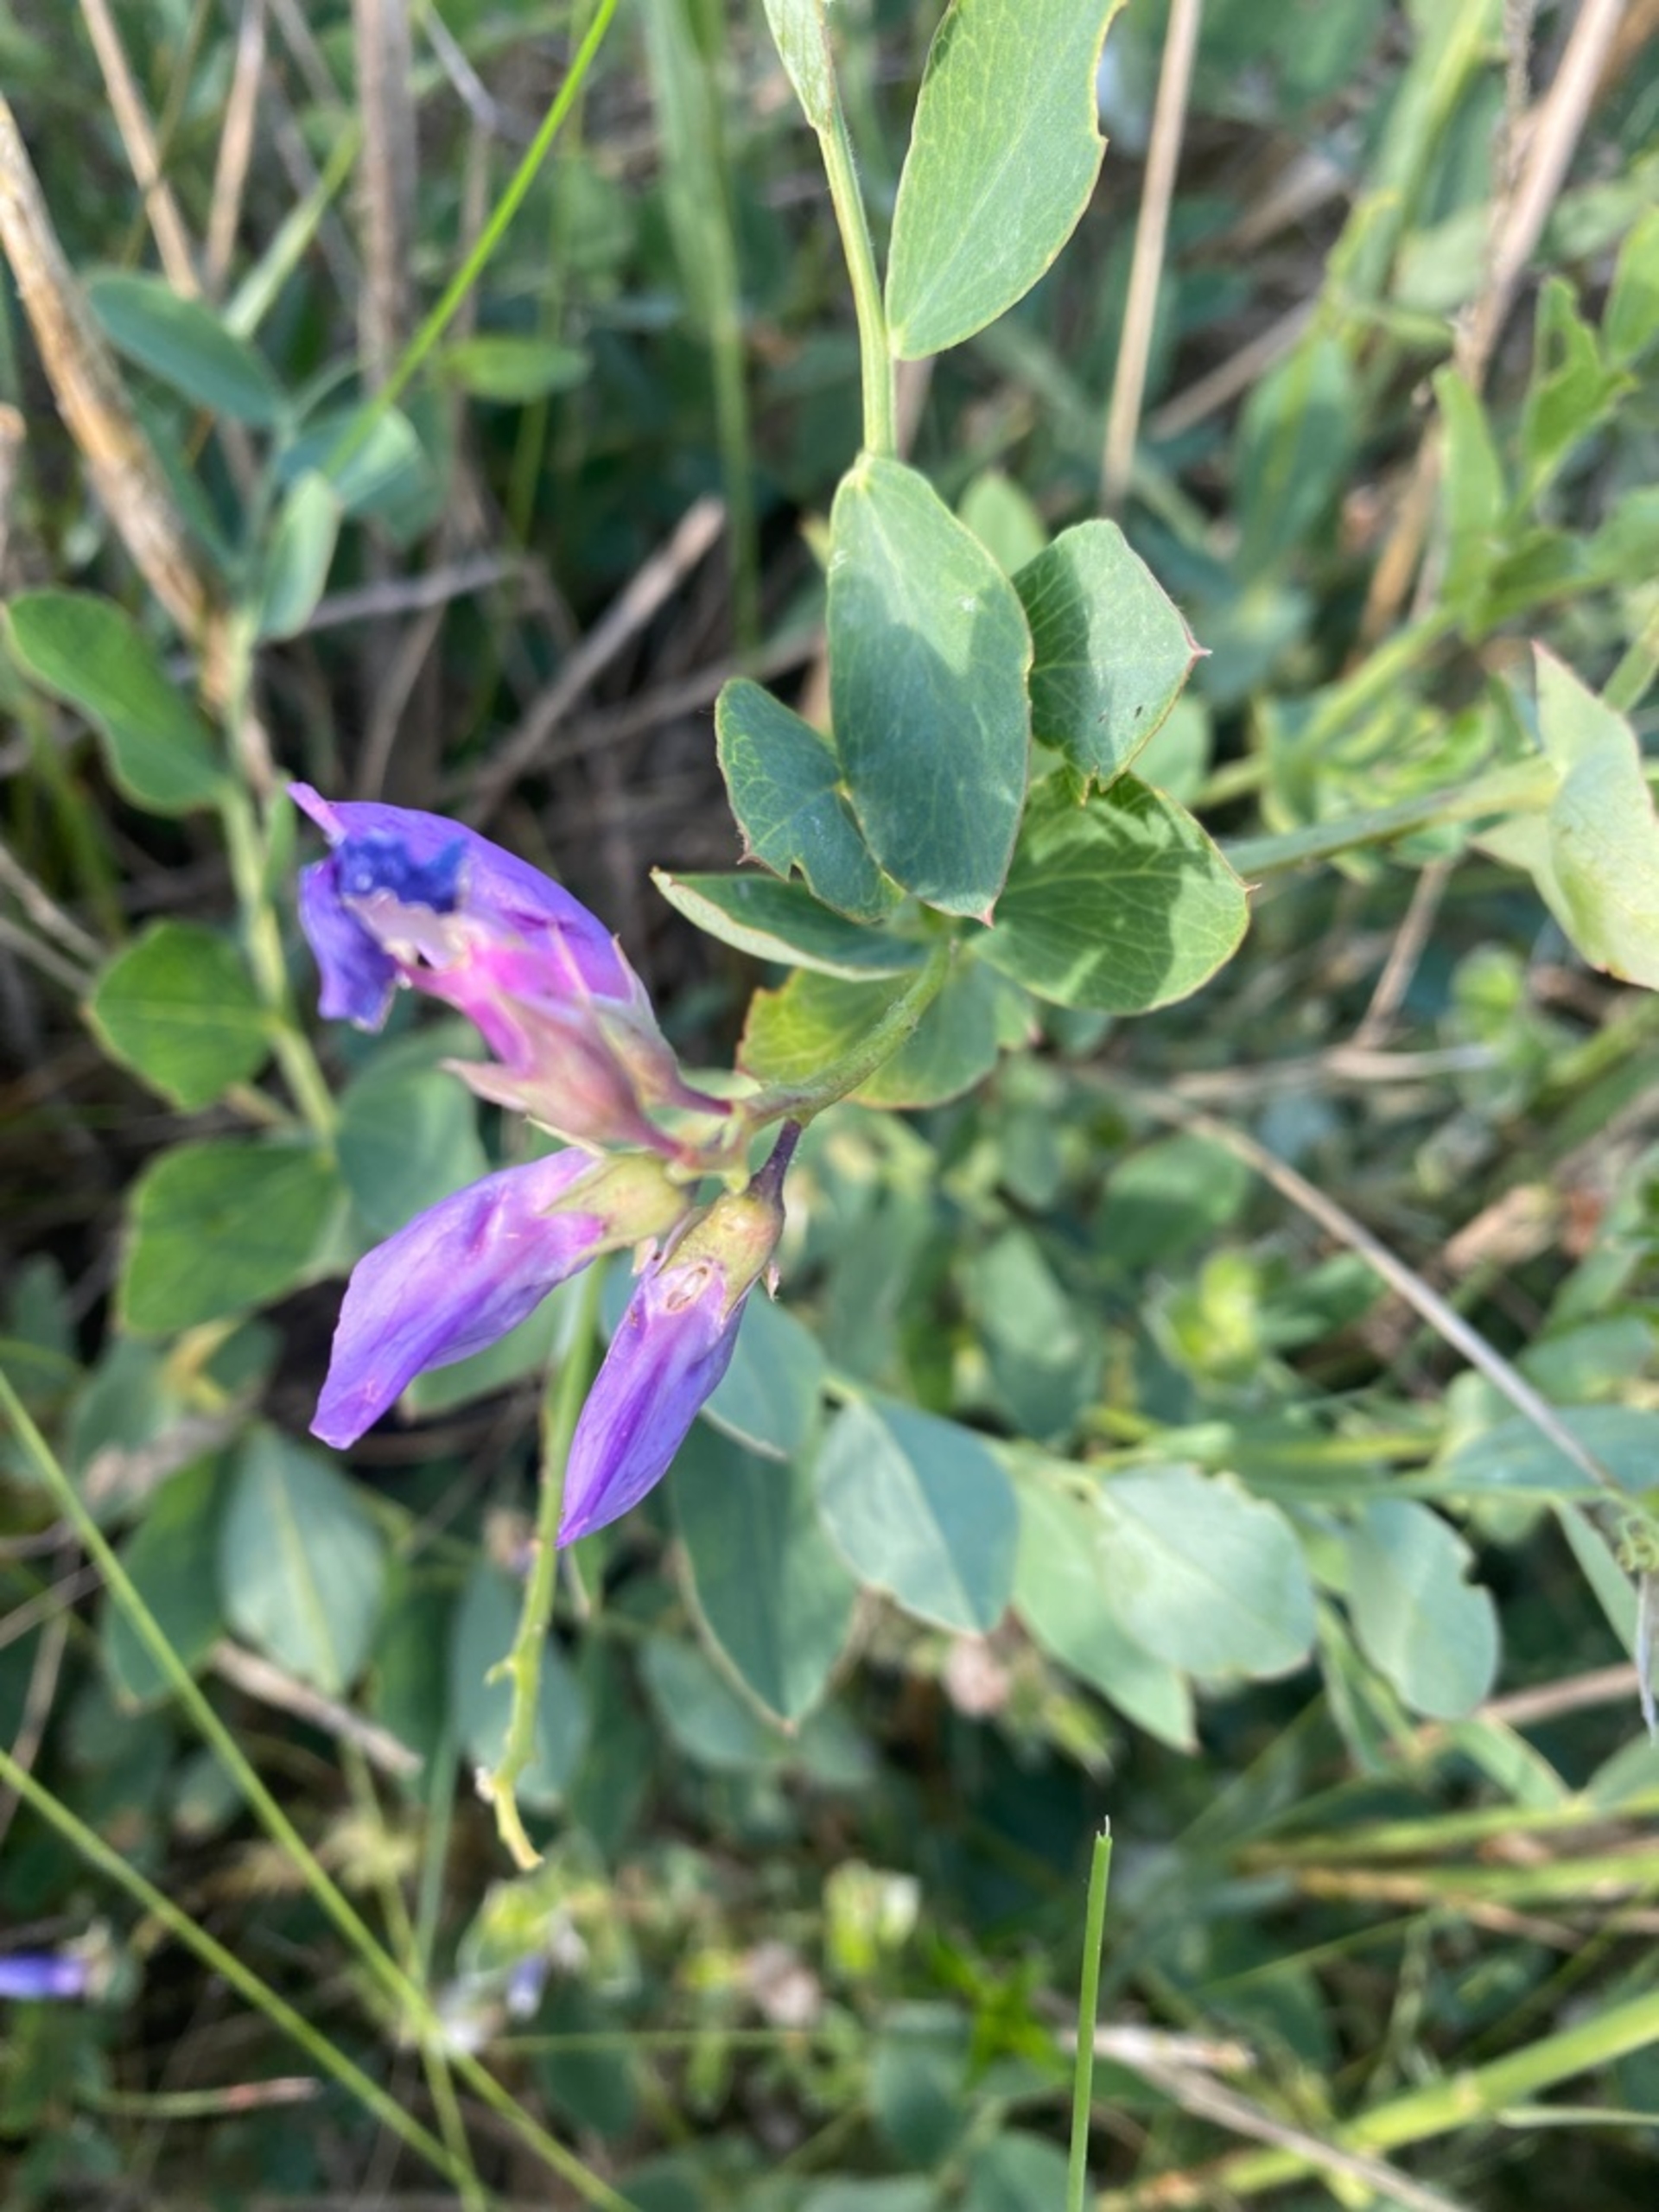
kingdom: Plantae
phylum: Tracheophyta
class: Magnoliopsida
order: Fabales
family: Fabaceae
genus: Lathyrus
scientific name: Lathyrus japonicus
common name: Strand-fladbælg
